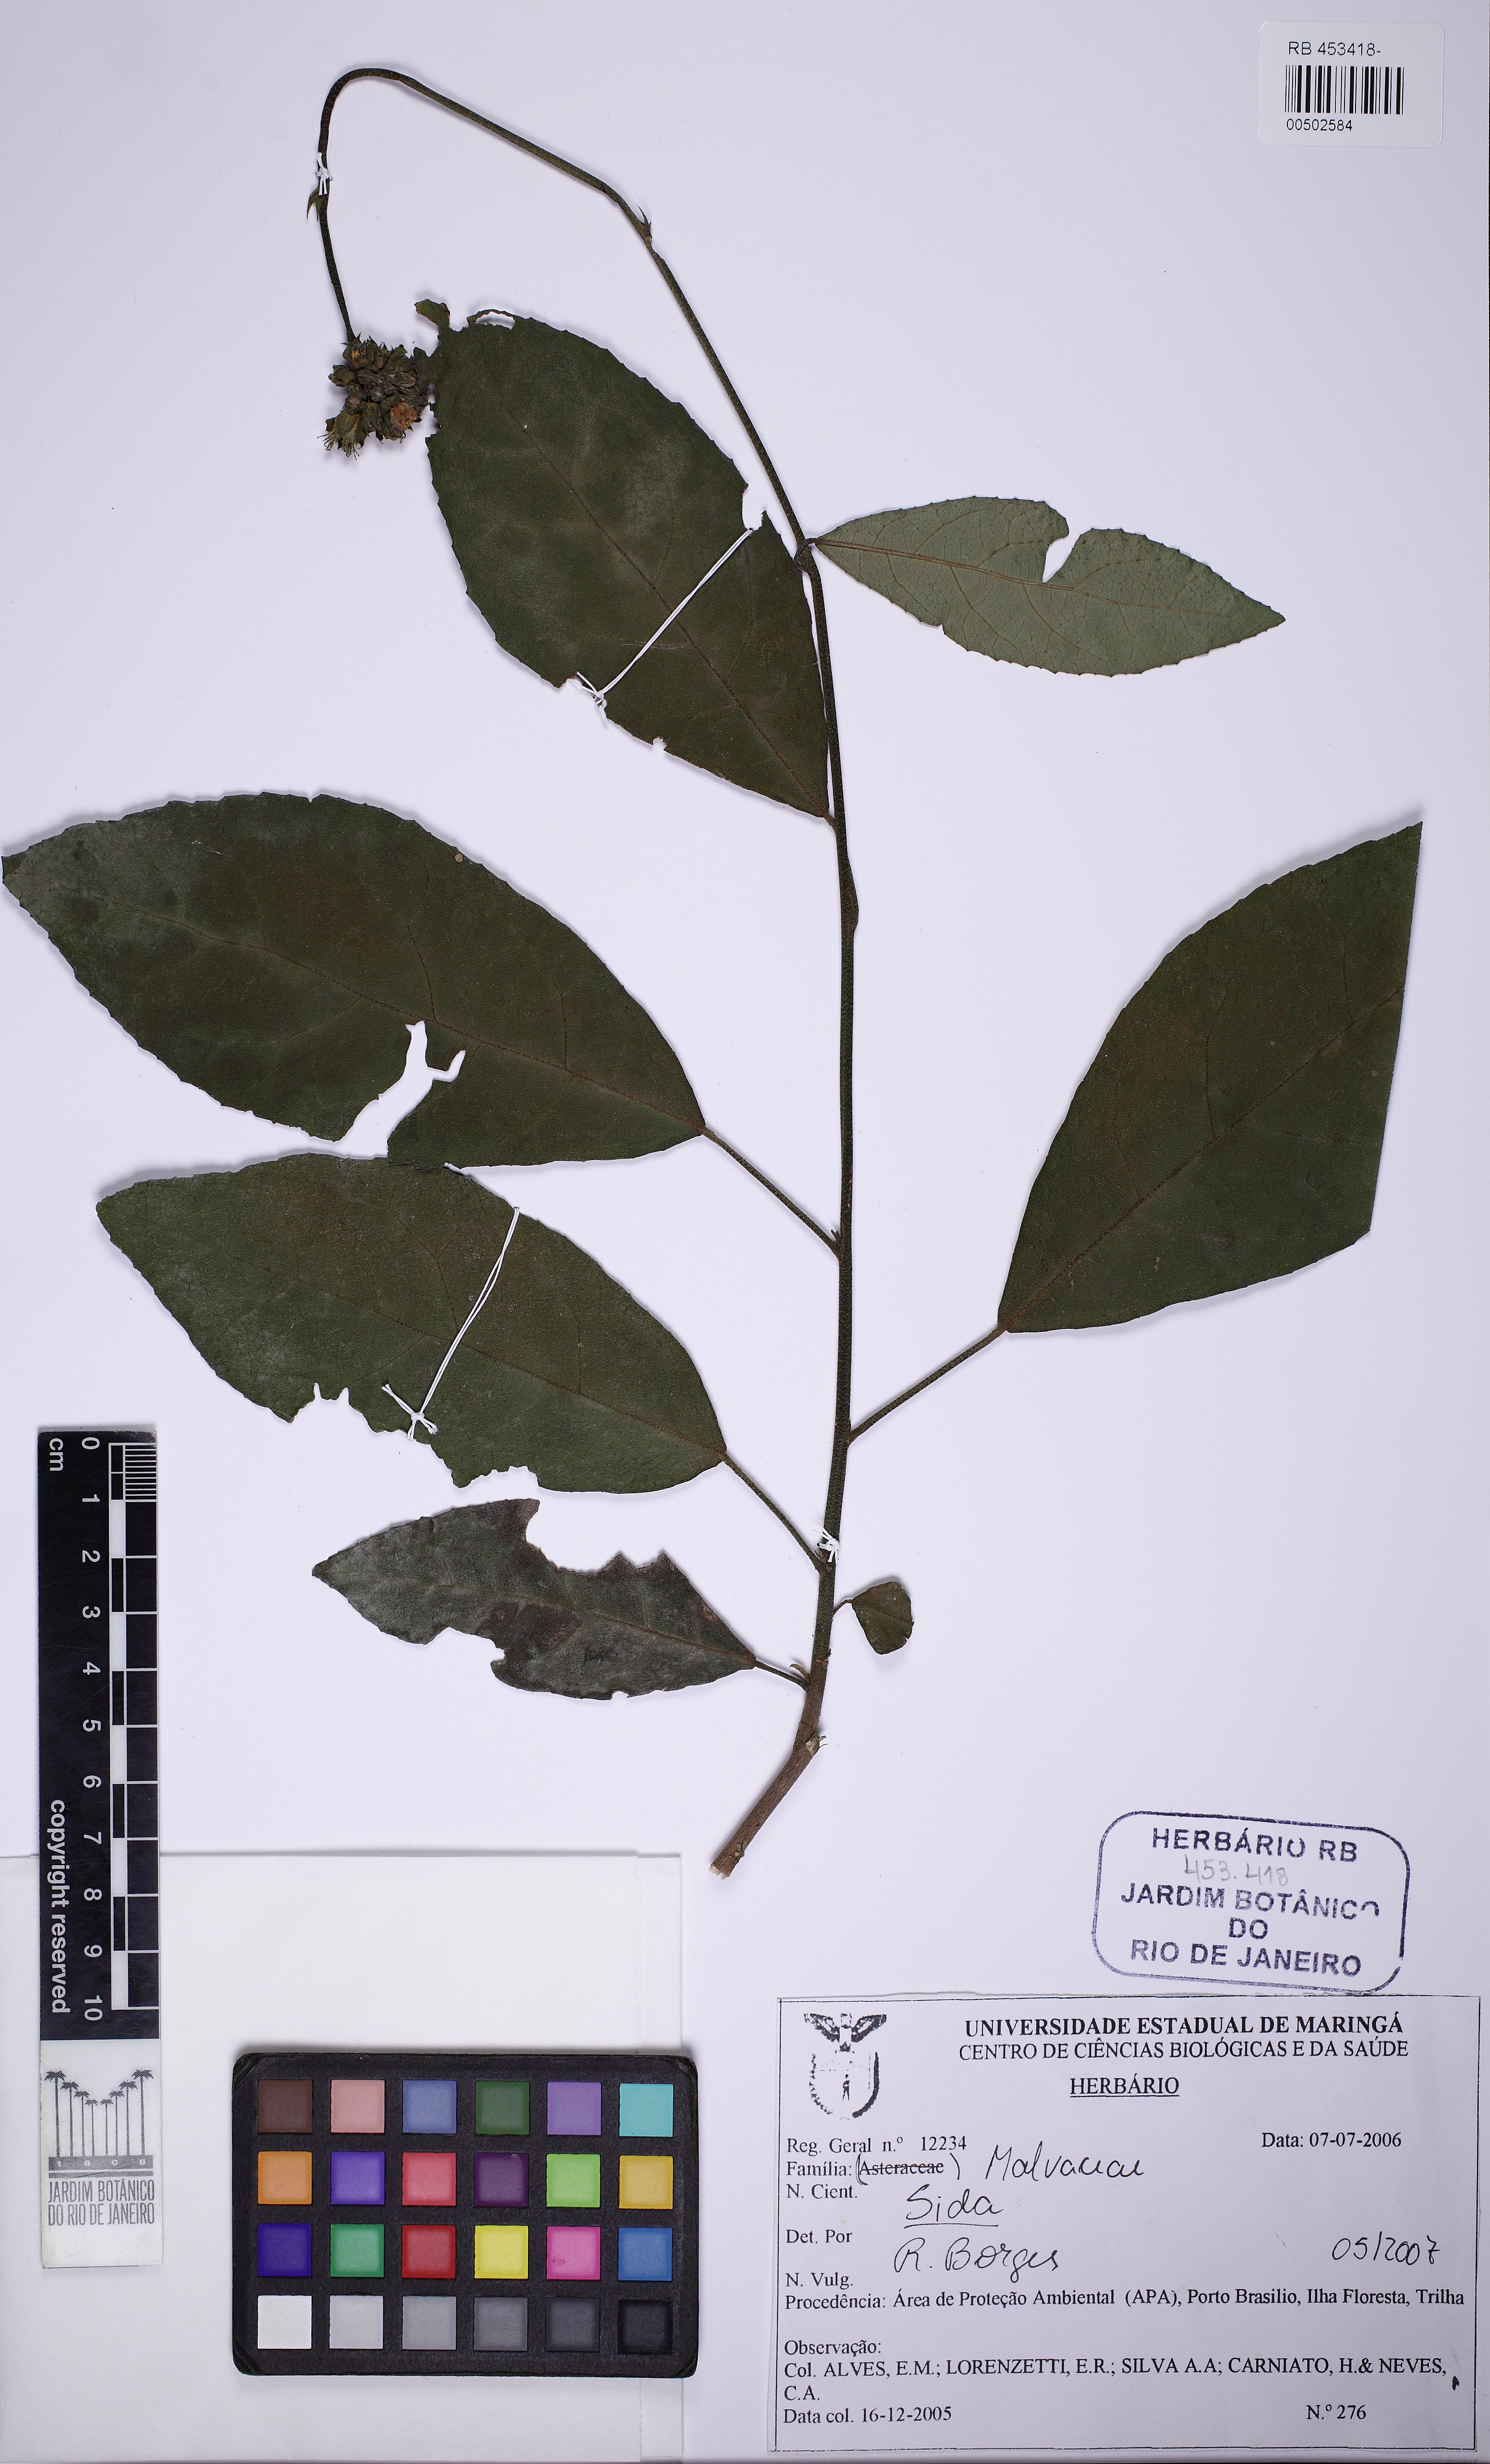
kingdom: Plantae
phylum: Tracheophyta
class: Magnoliopsida
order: Malvales
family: Malvaceae
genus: Pavonia
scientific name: Pavonia nemoralis
